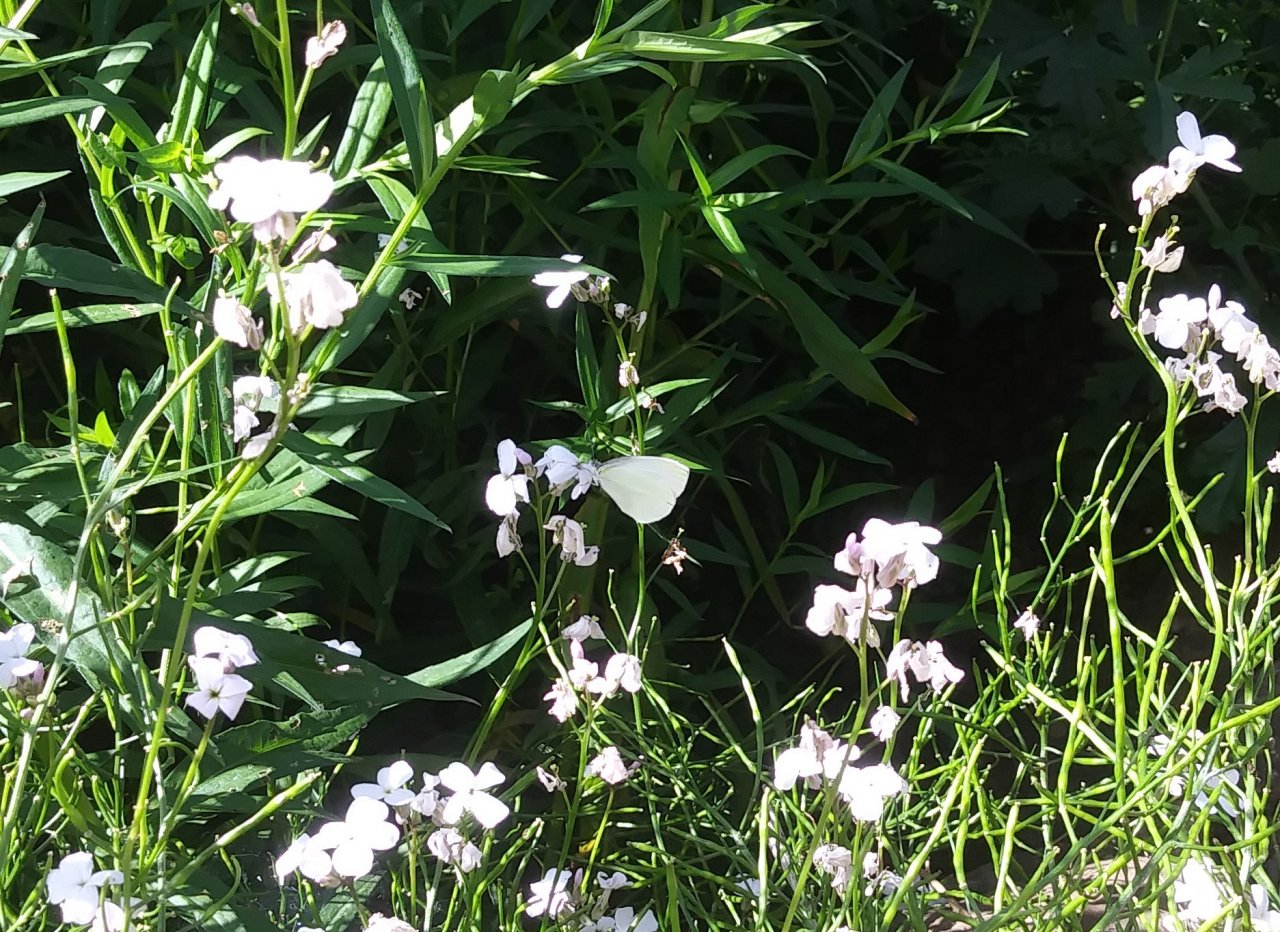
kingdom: Animalia
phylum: Arthropoda
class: Insecta
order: Lepidoptera
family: Pieridae
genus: Pieris
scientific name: Pieris oleracea
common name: Mustard White
